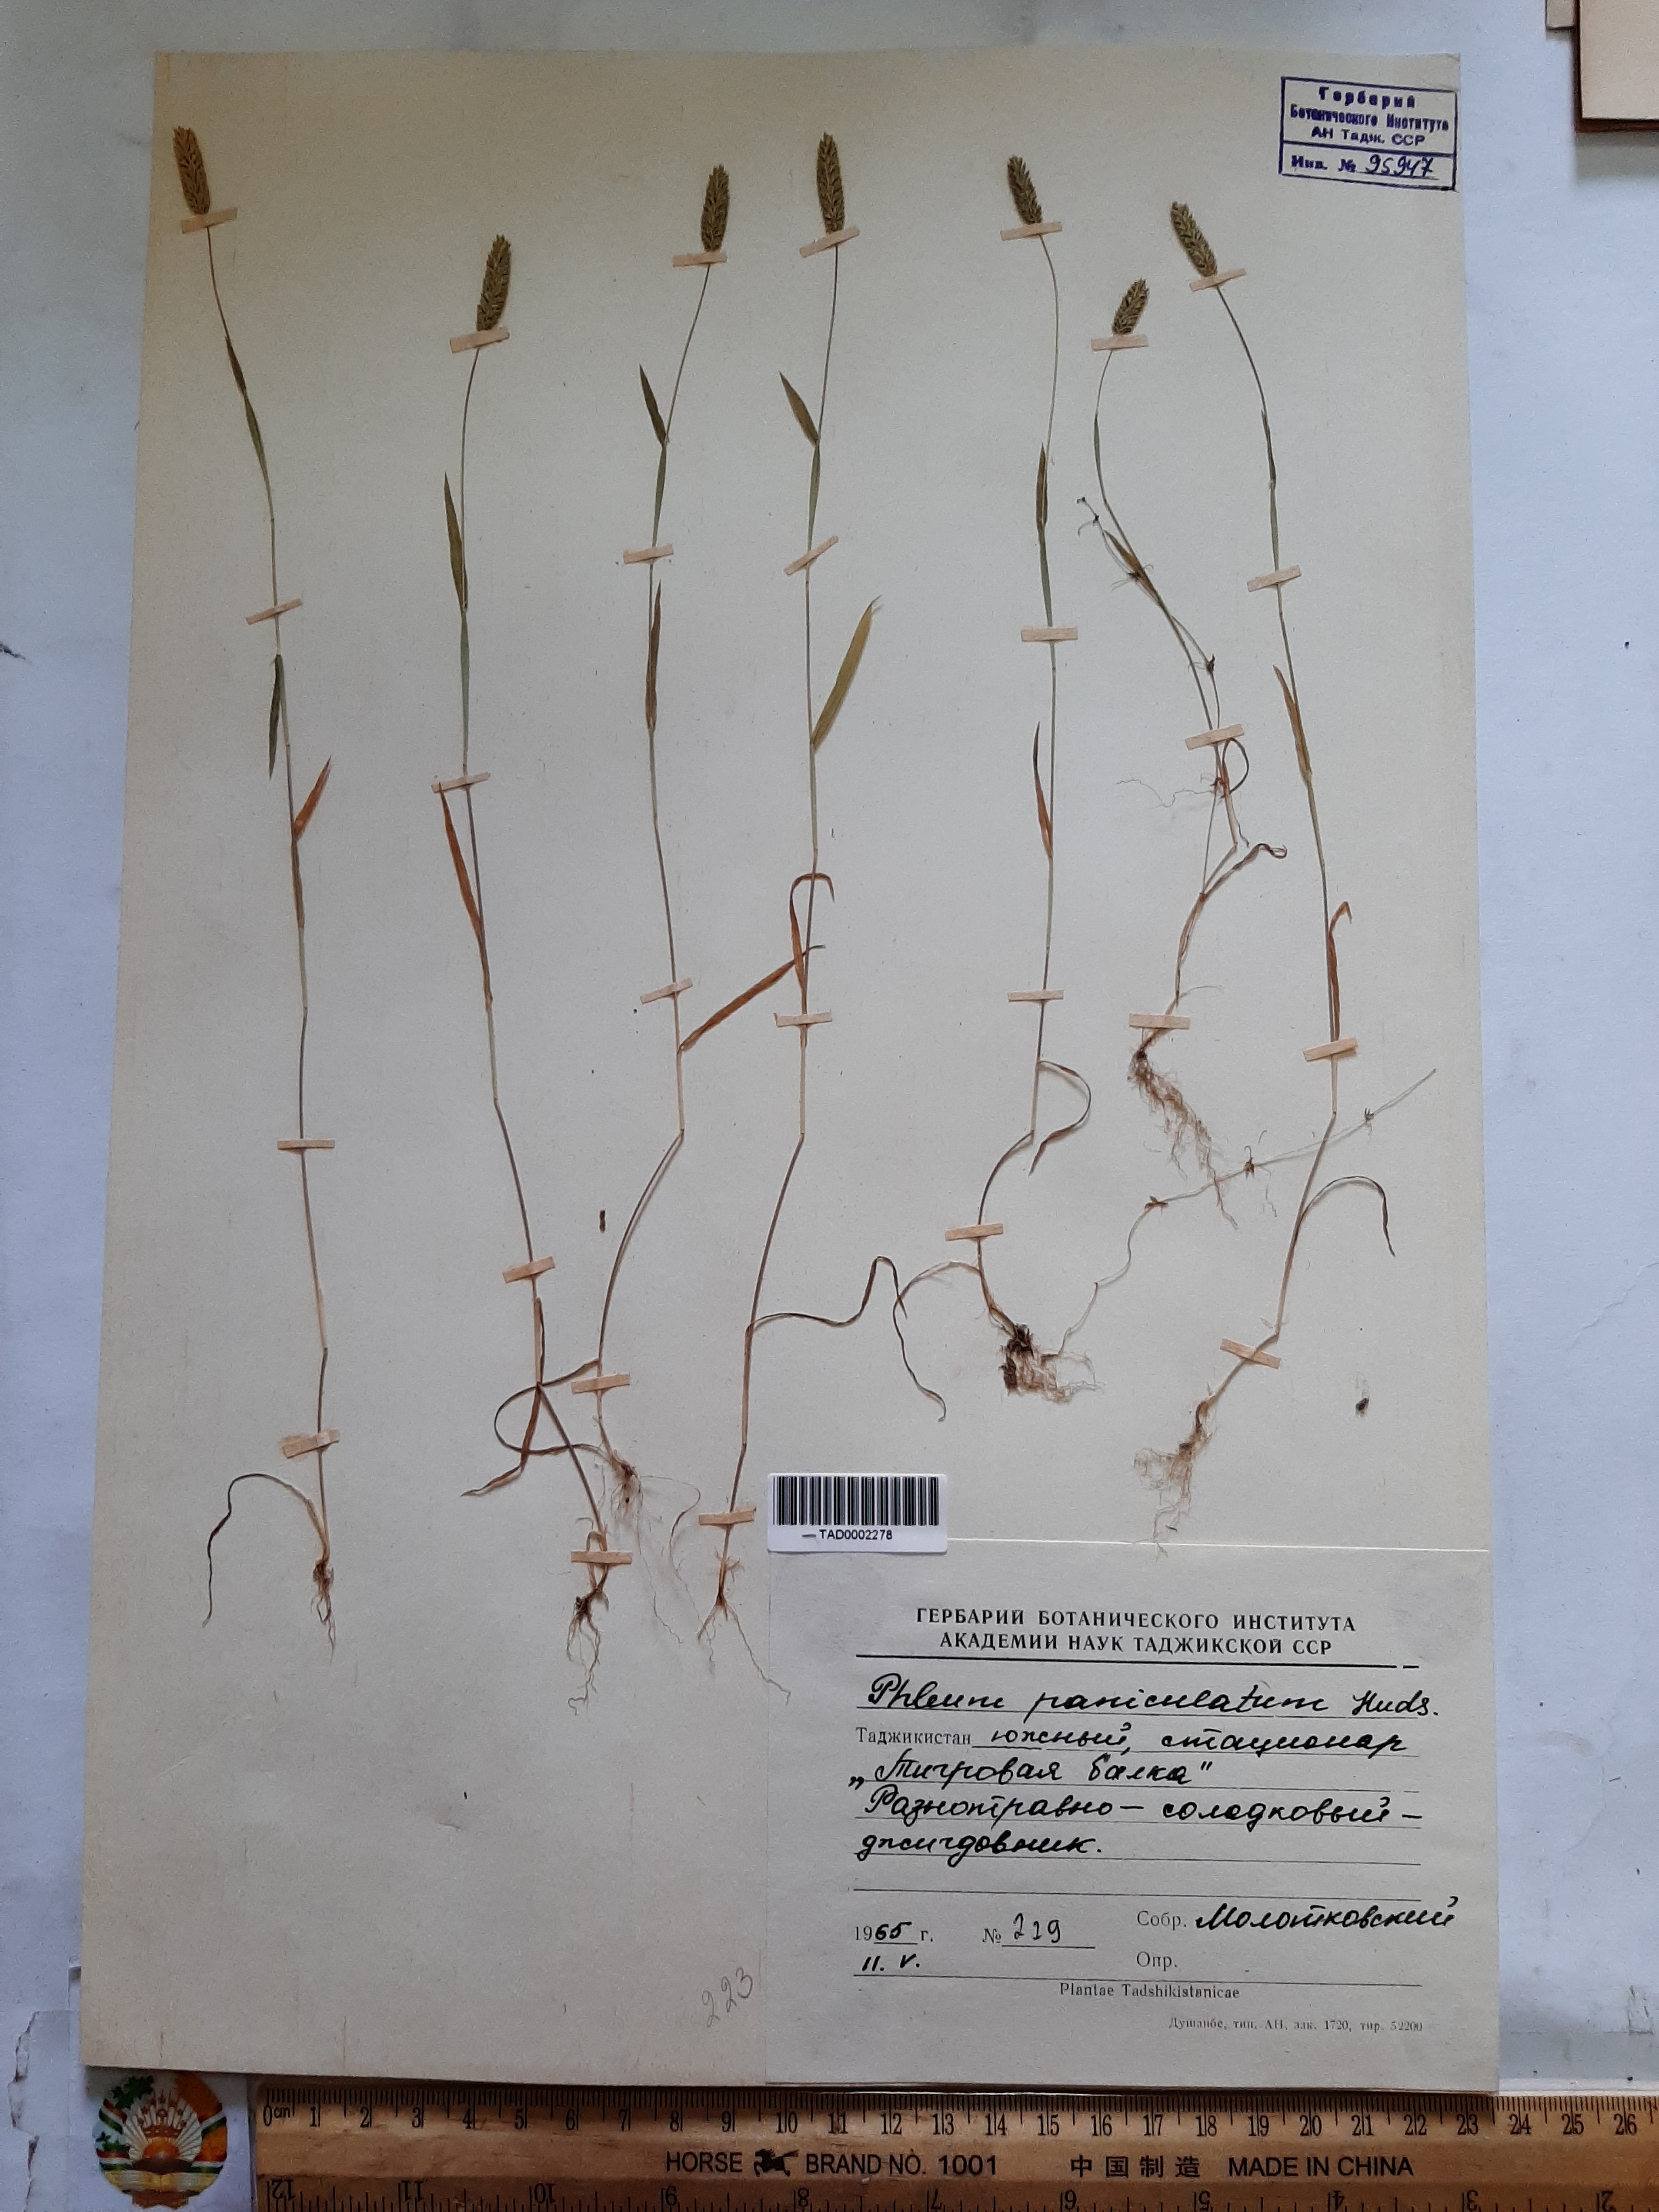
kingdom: Plantae
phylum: Tracheophyta
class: Liliopsida
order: Poales
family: Poaceae
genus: Phleum
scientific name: Phleum paniculatum
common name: British timothy
